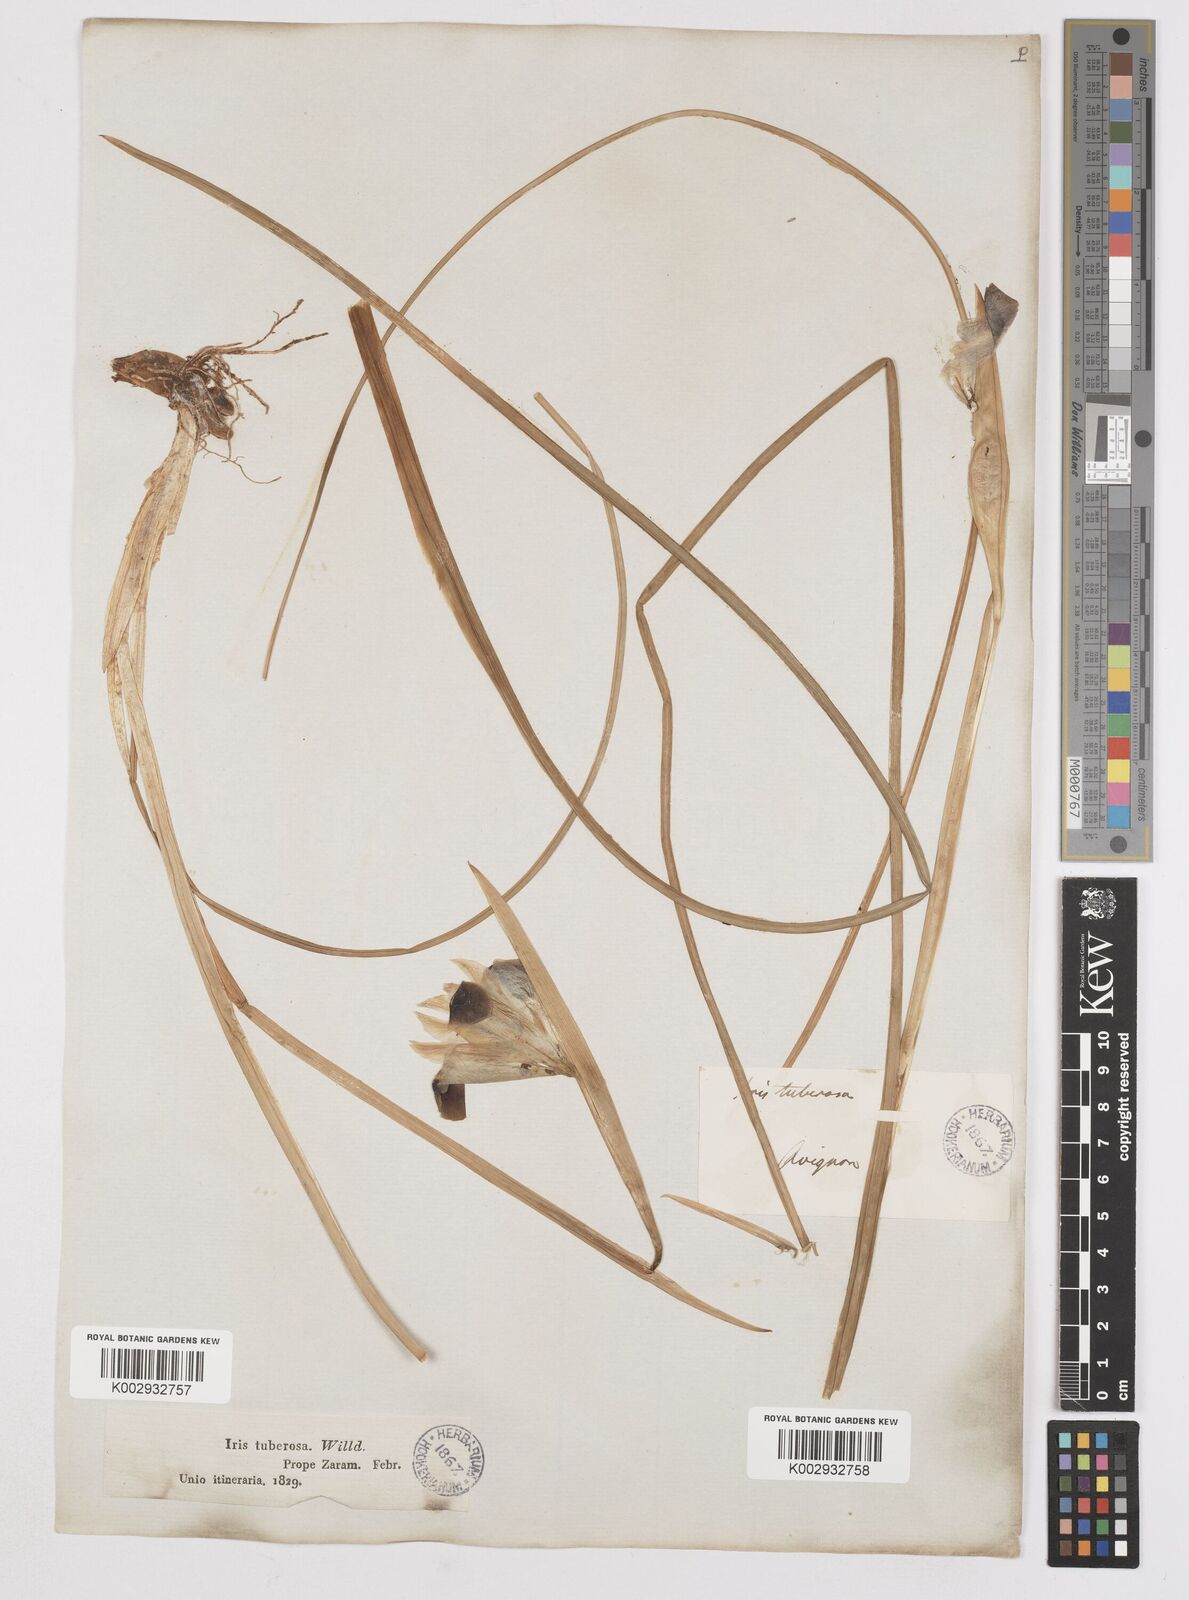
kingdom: Plantae
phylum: Tracheophyta
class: Liliopsida
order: Asparagales
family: Iridaceae
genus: Iris
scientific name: Iris tuberosa
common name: Snake's-head iris
